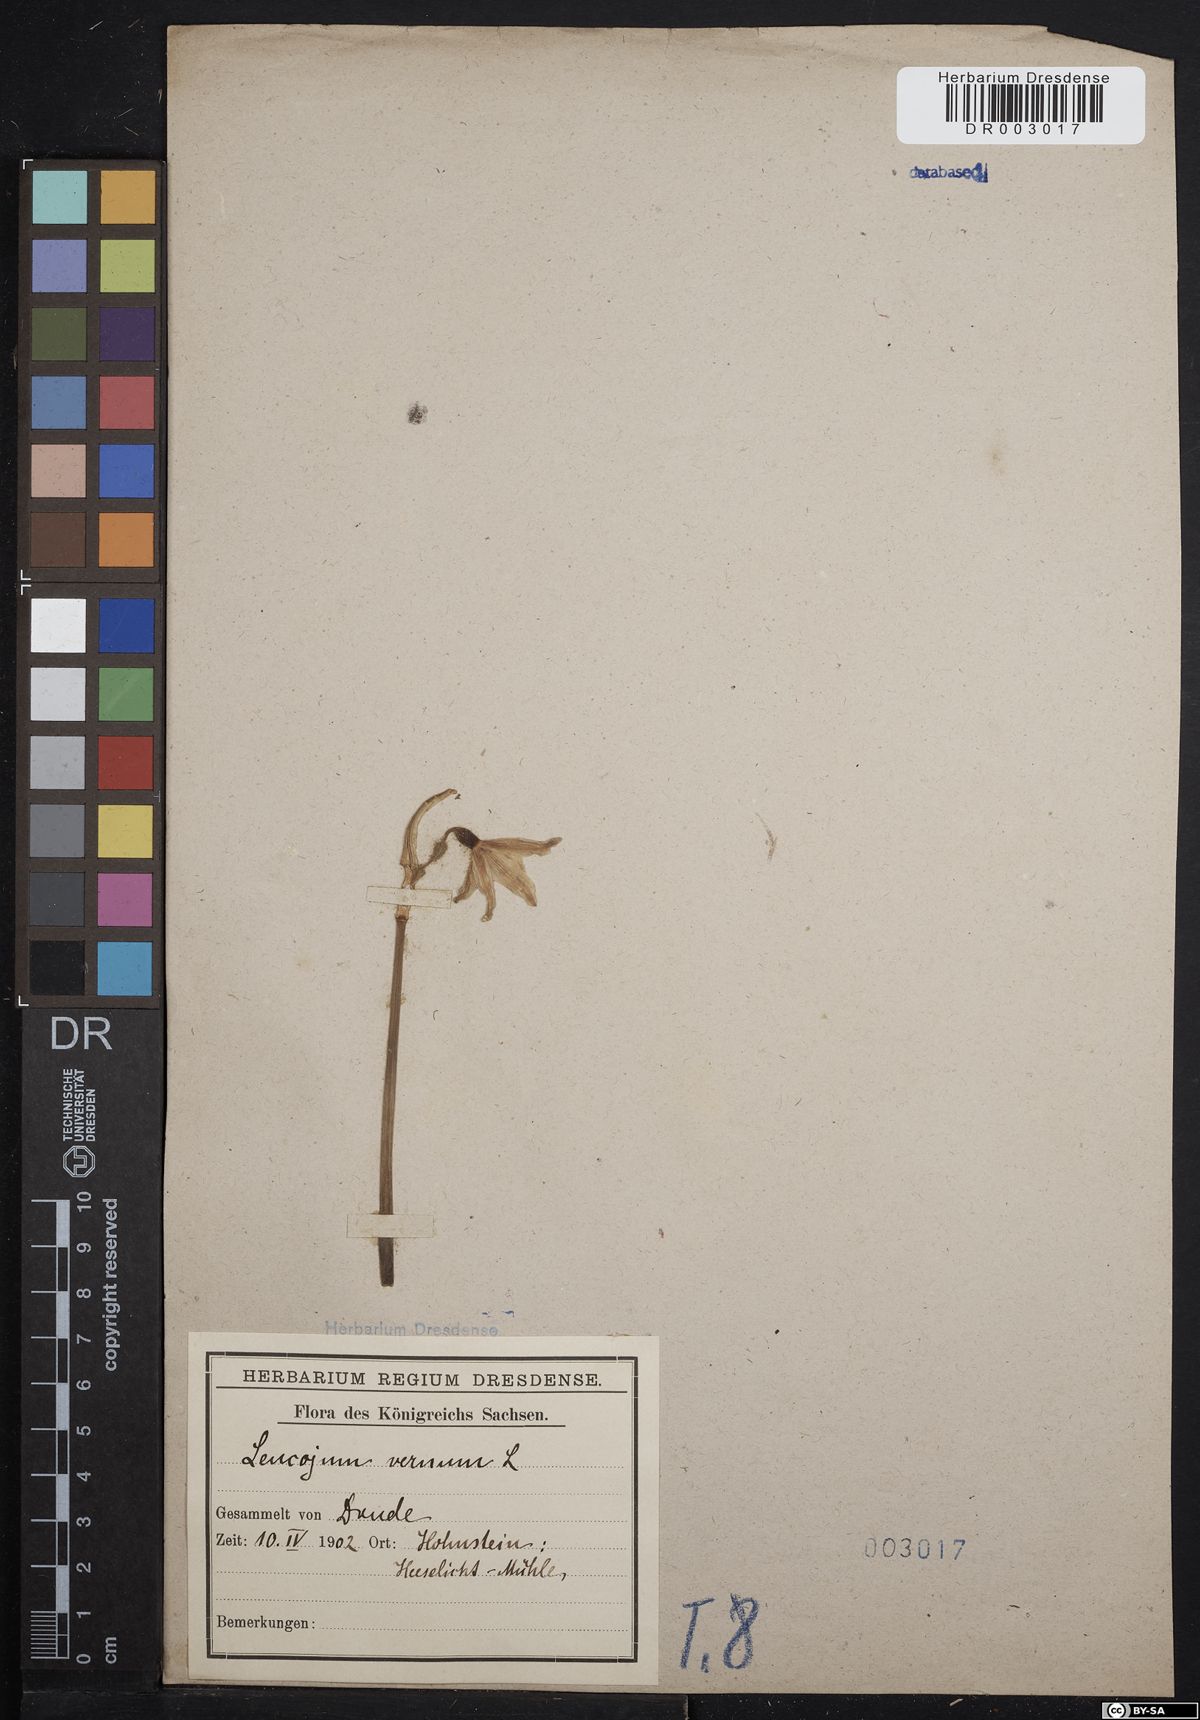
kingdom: Plantae
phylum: Tracheophyta
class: Liliopsida
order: Asparagales
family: Amaryllidaceae
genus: Leucojum
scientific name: Leucojum vernum
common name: Spring snowflake
